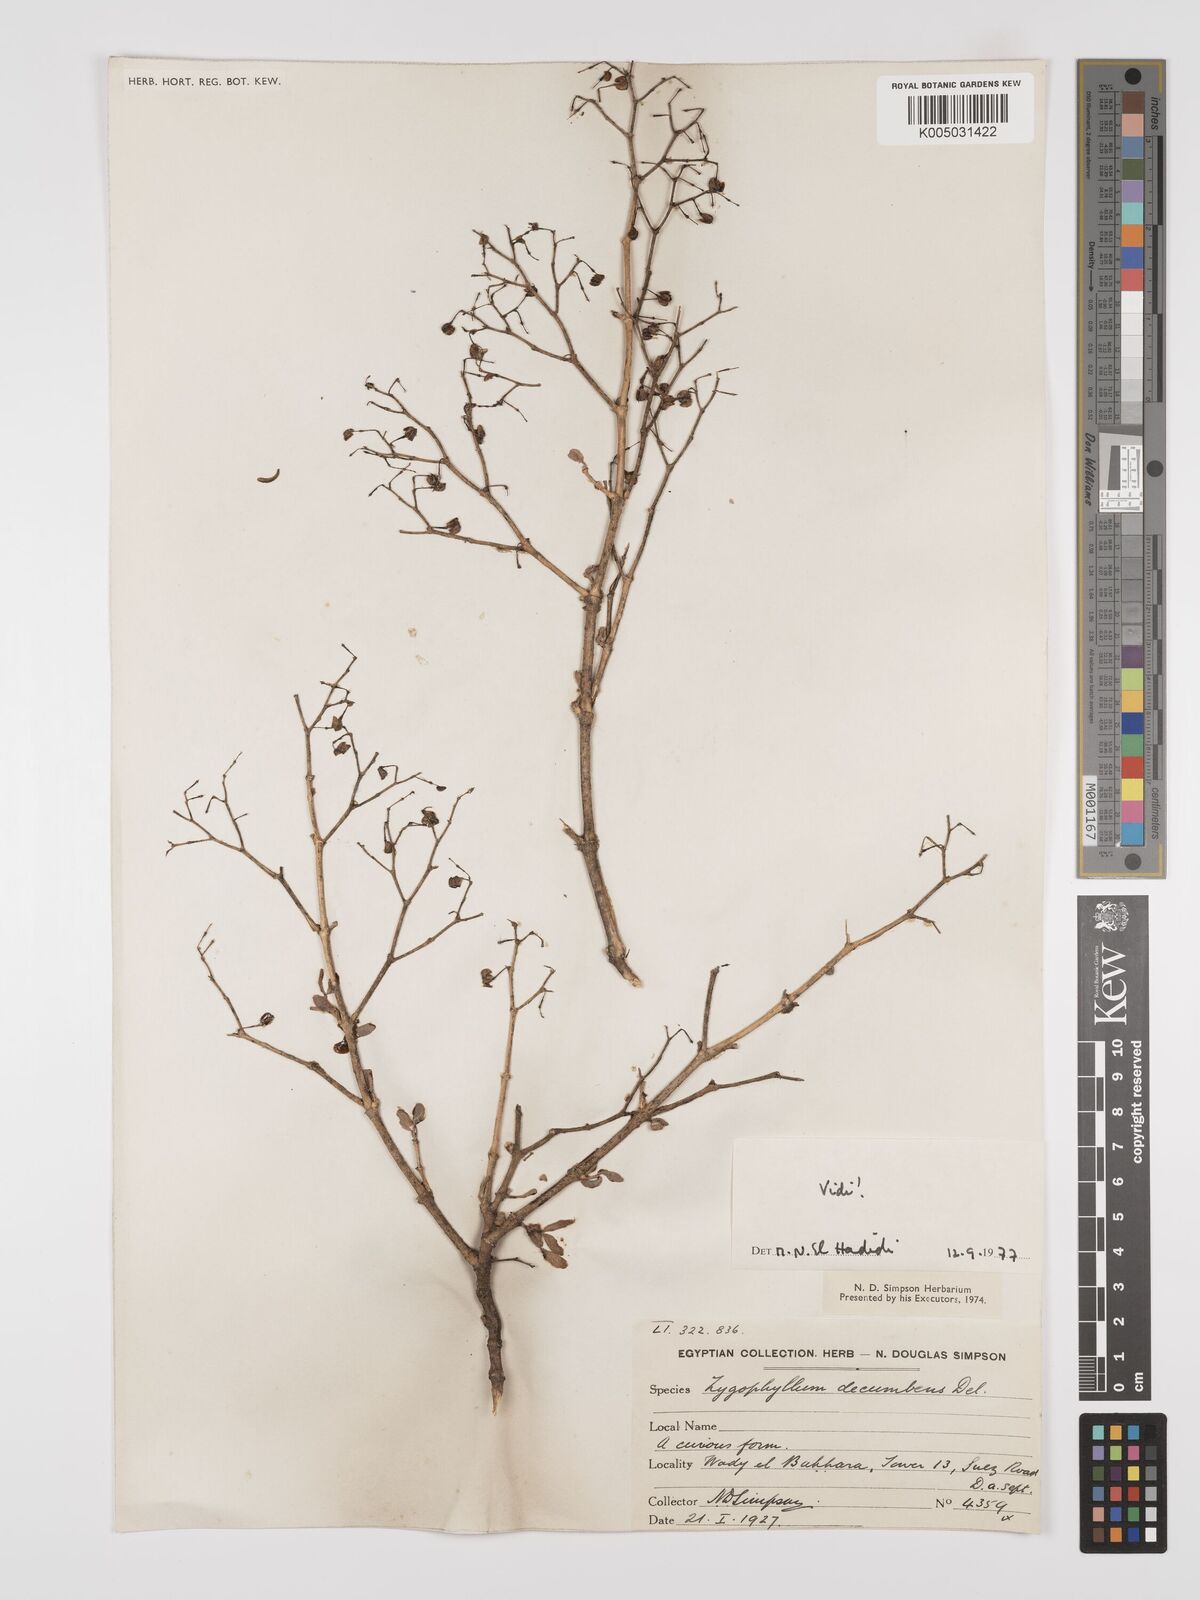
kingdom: Plantae
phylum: Tracheophyta
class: Magnoliopsida
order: Zygophyllales
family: Zygophyllaceae
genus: Tetraena
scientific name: Tetraena decumbens
